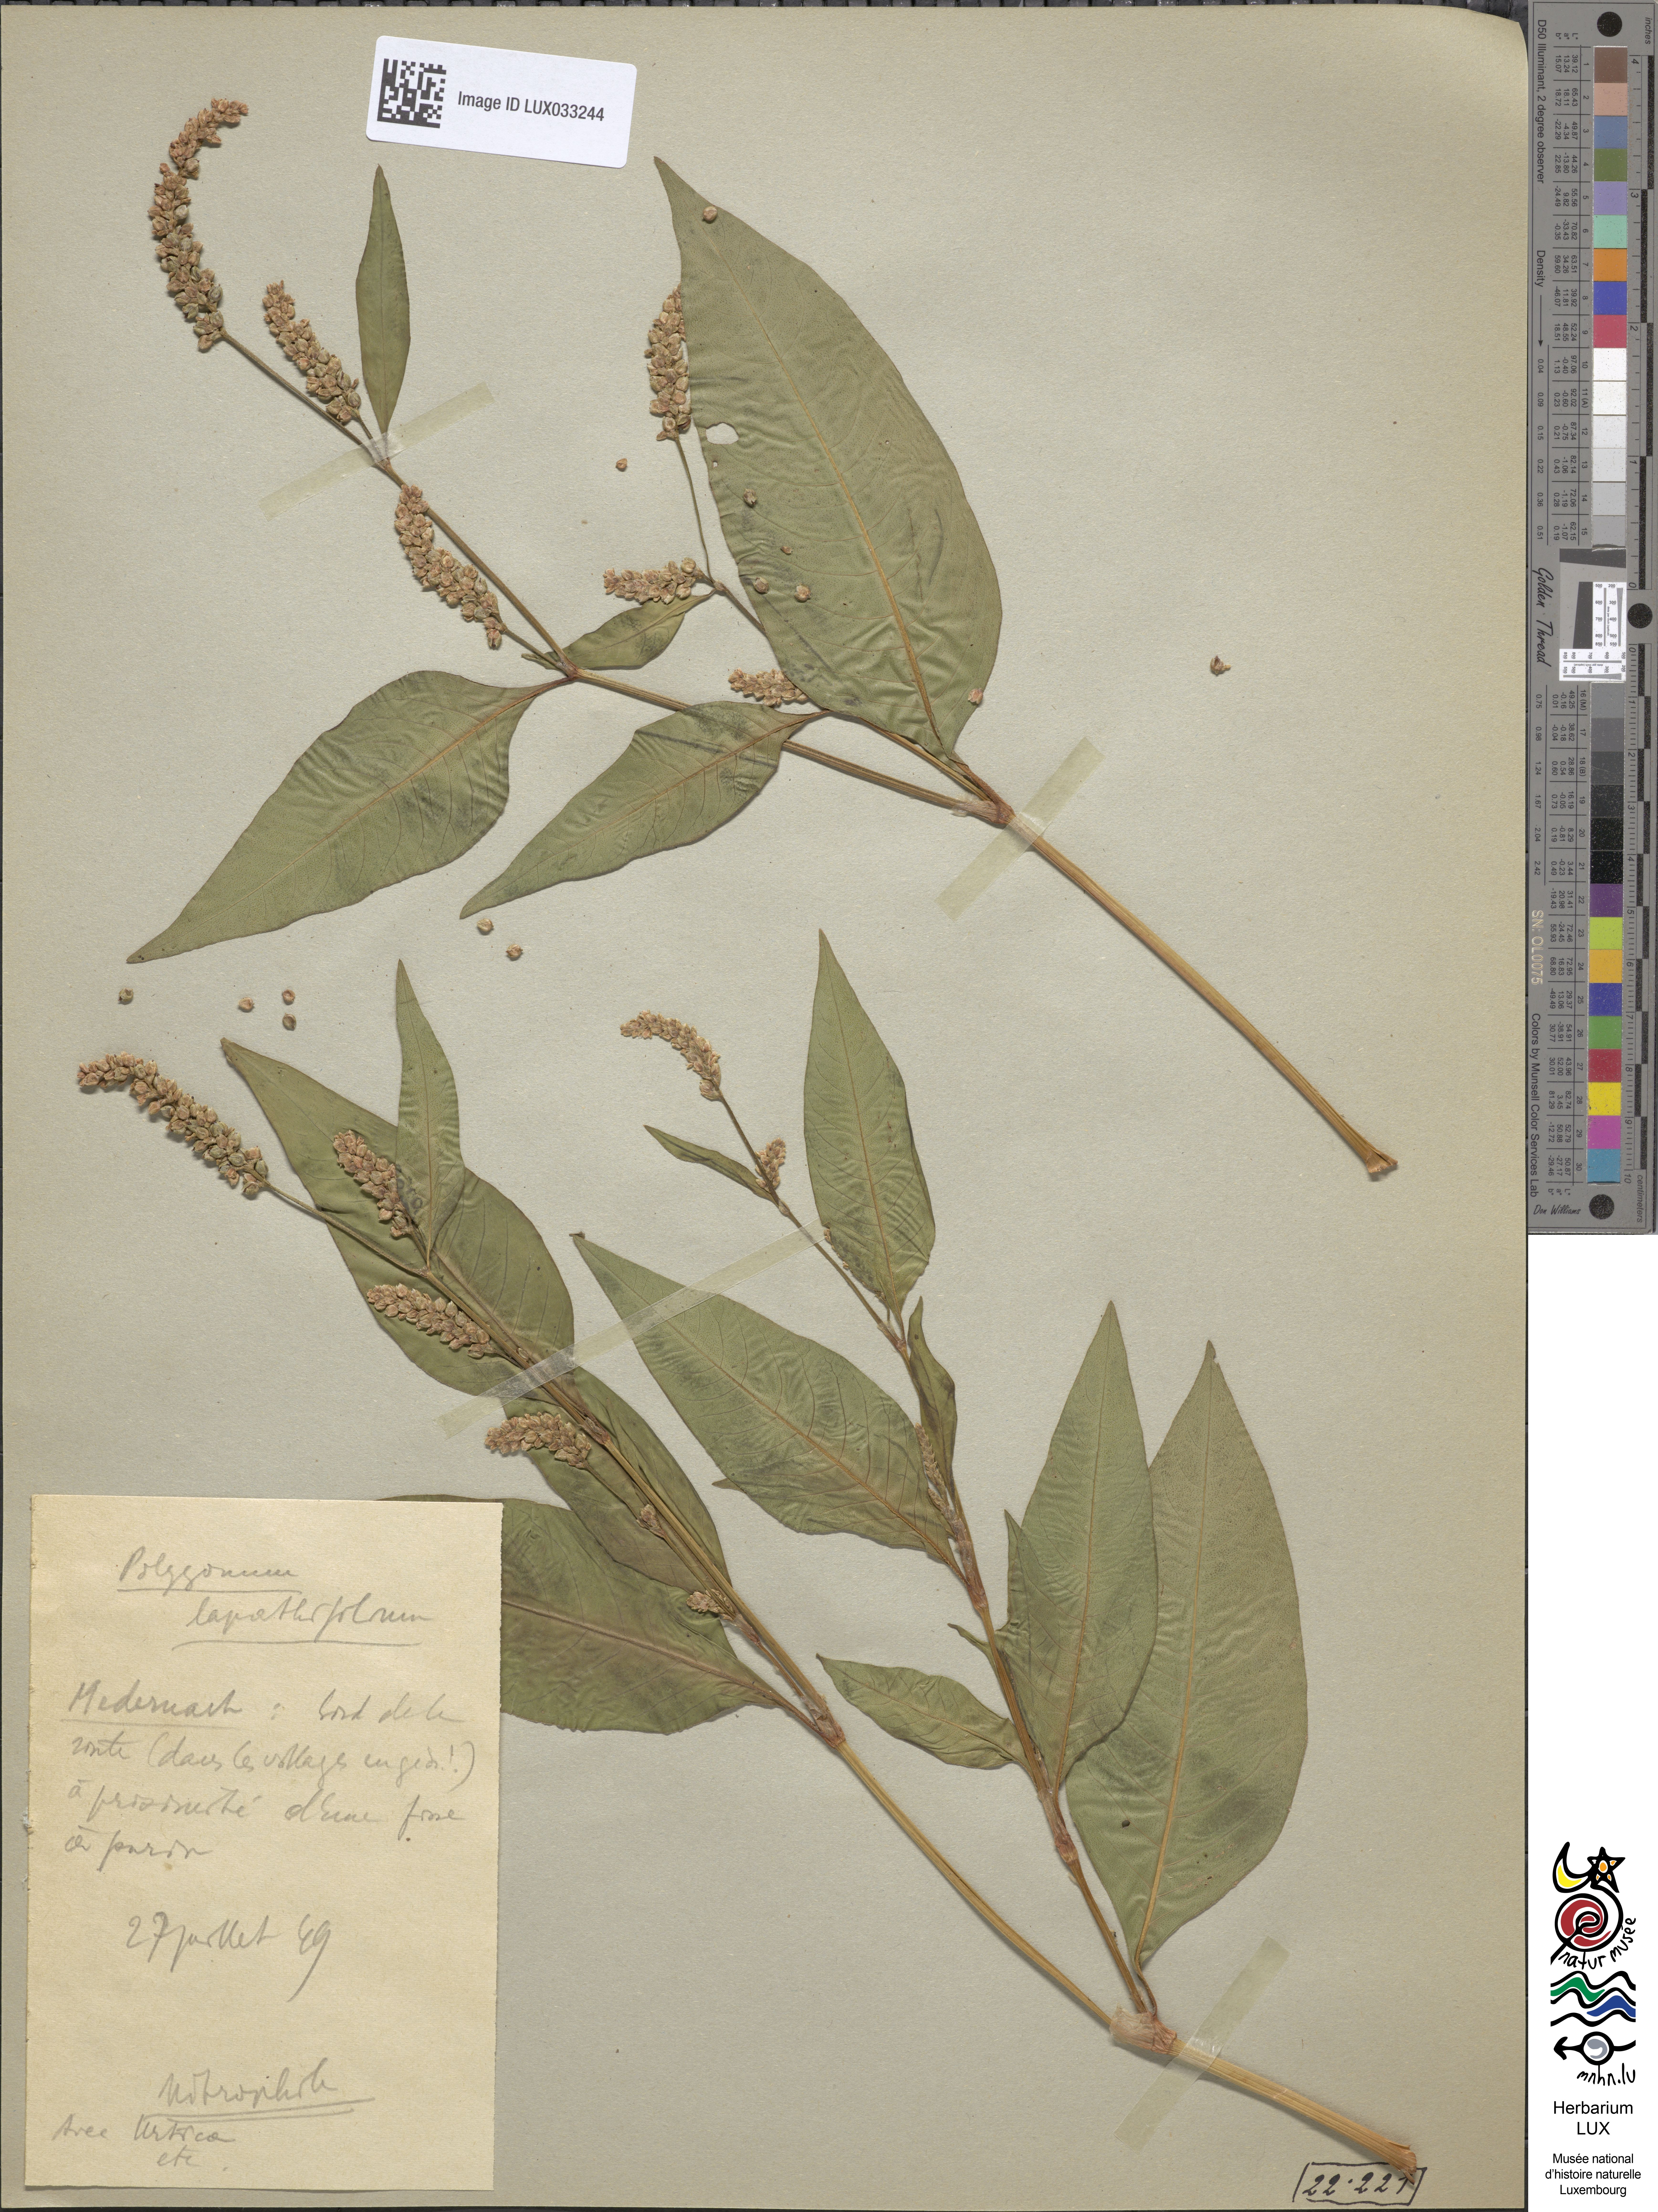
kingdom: Plantae
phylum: Tracheophyta
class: Magnoliopsida
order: Caryophyllales
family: Polygonaceae
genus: Persicaria
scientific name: Persicaria lapathifolia
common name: Curlytop knotweed
